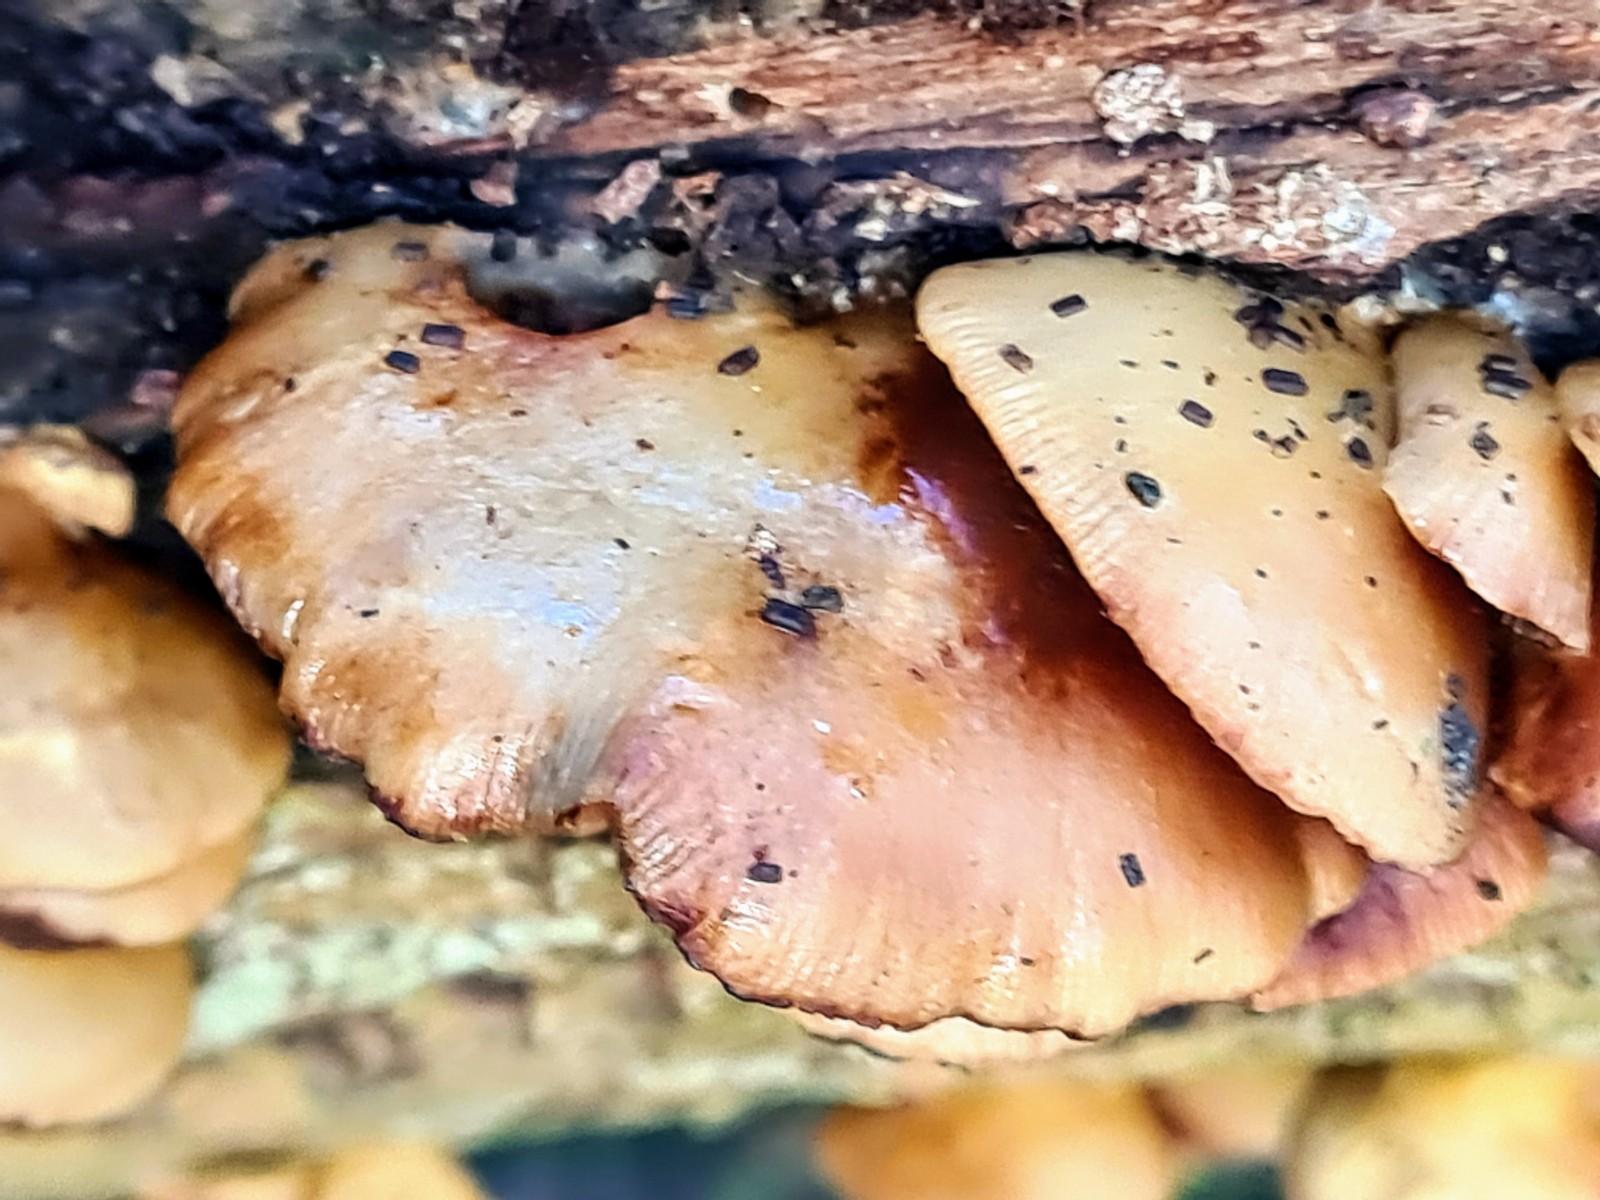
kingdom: Fungi
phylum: Basidiomycota
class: Agaricomycetes
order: Agaricales
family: Crepidotaceae
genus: Crepidotus
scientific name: Crepidotus mollis
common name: blød muslingesvamp
